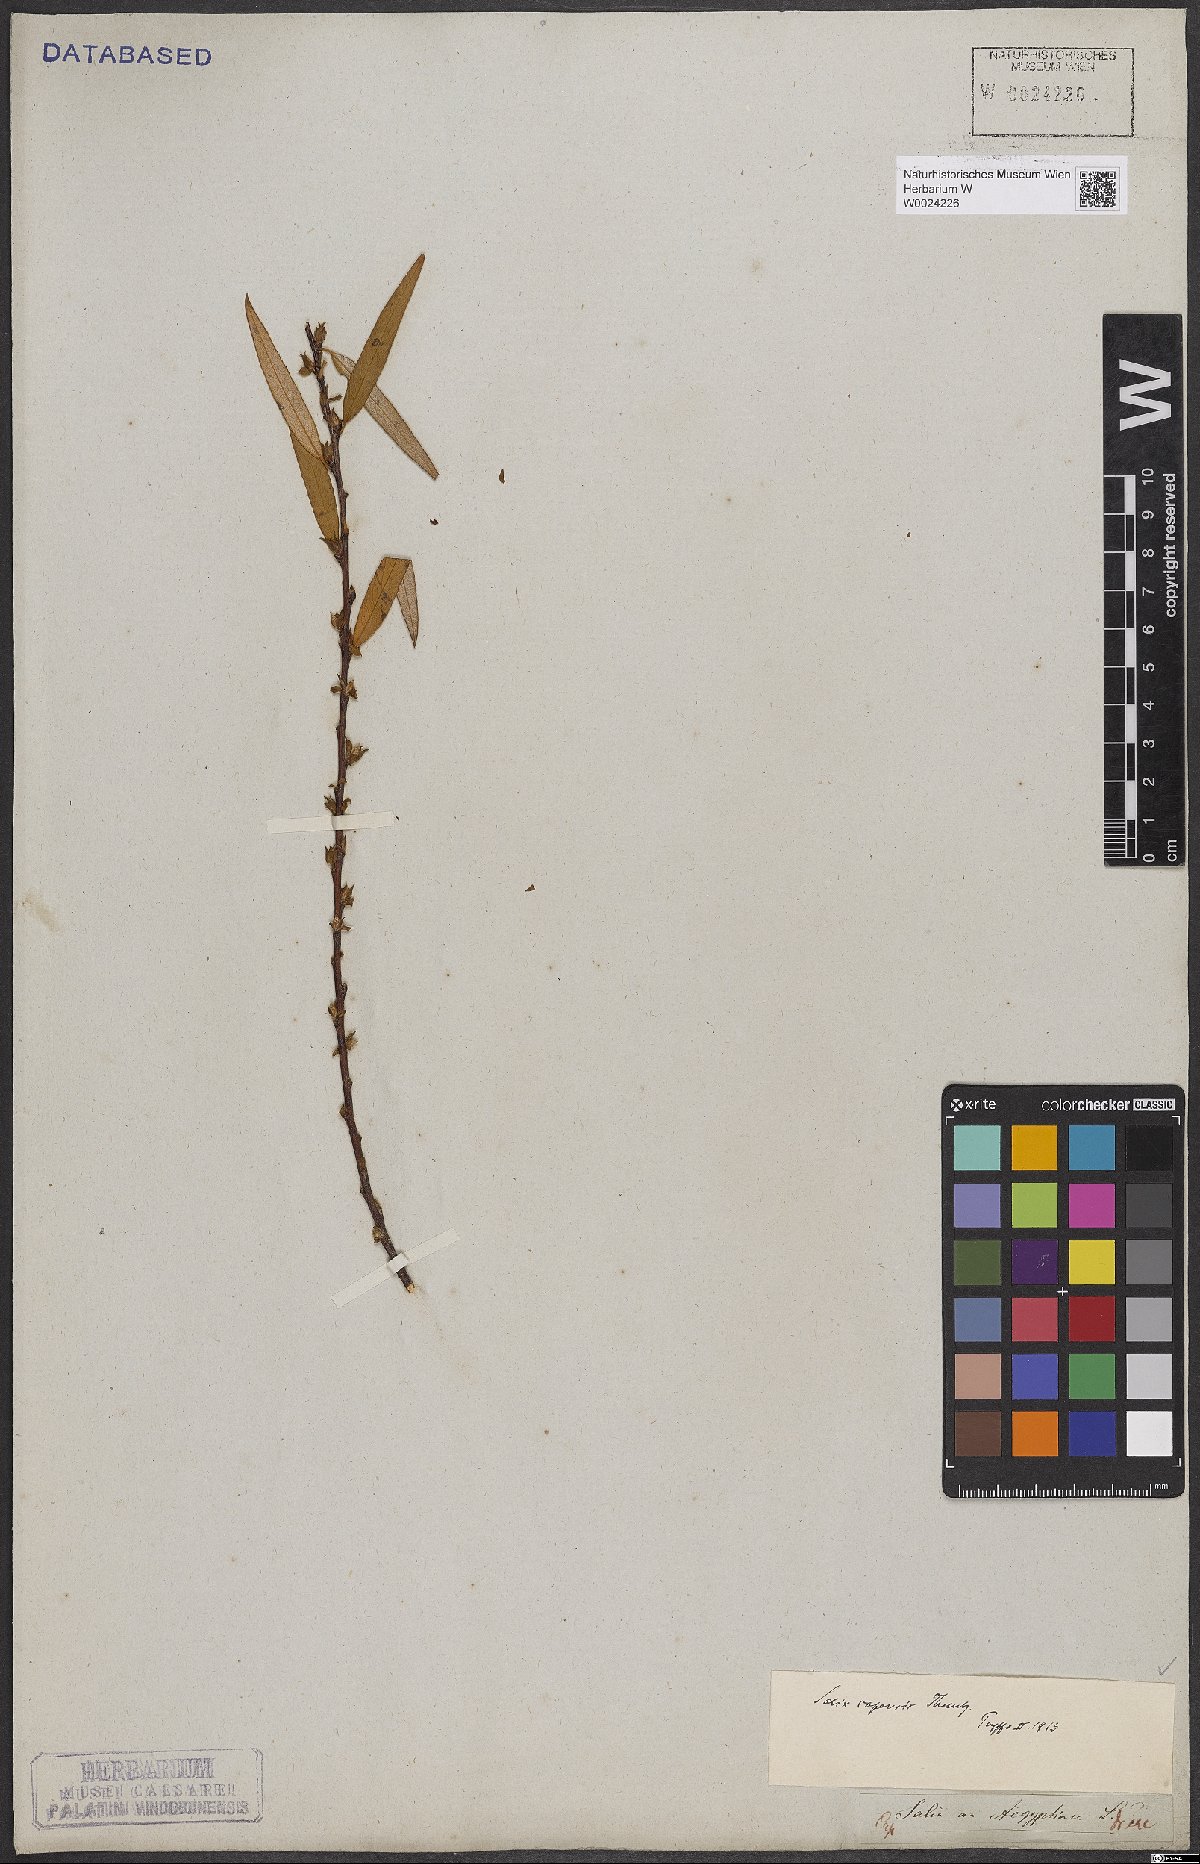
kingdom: Plantae
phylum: Tracheophyta
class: Magnoliopsida
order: Malpighiales
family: Salicaceae
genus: Salix
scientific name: Salix mucronata
